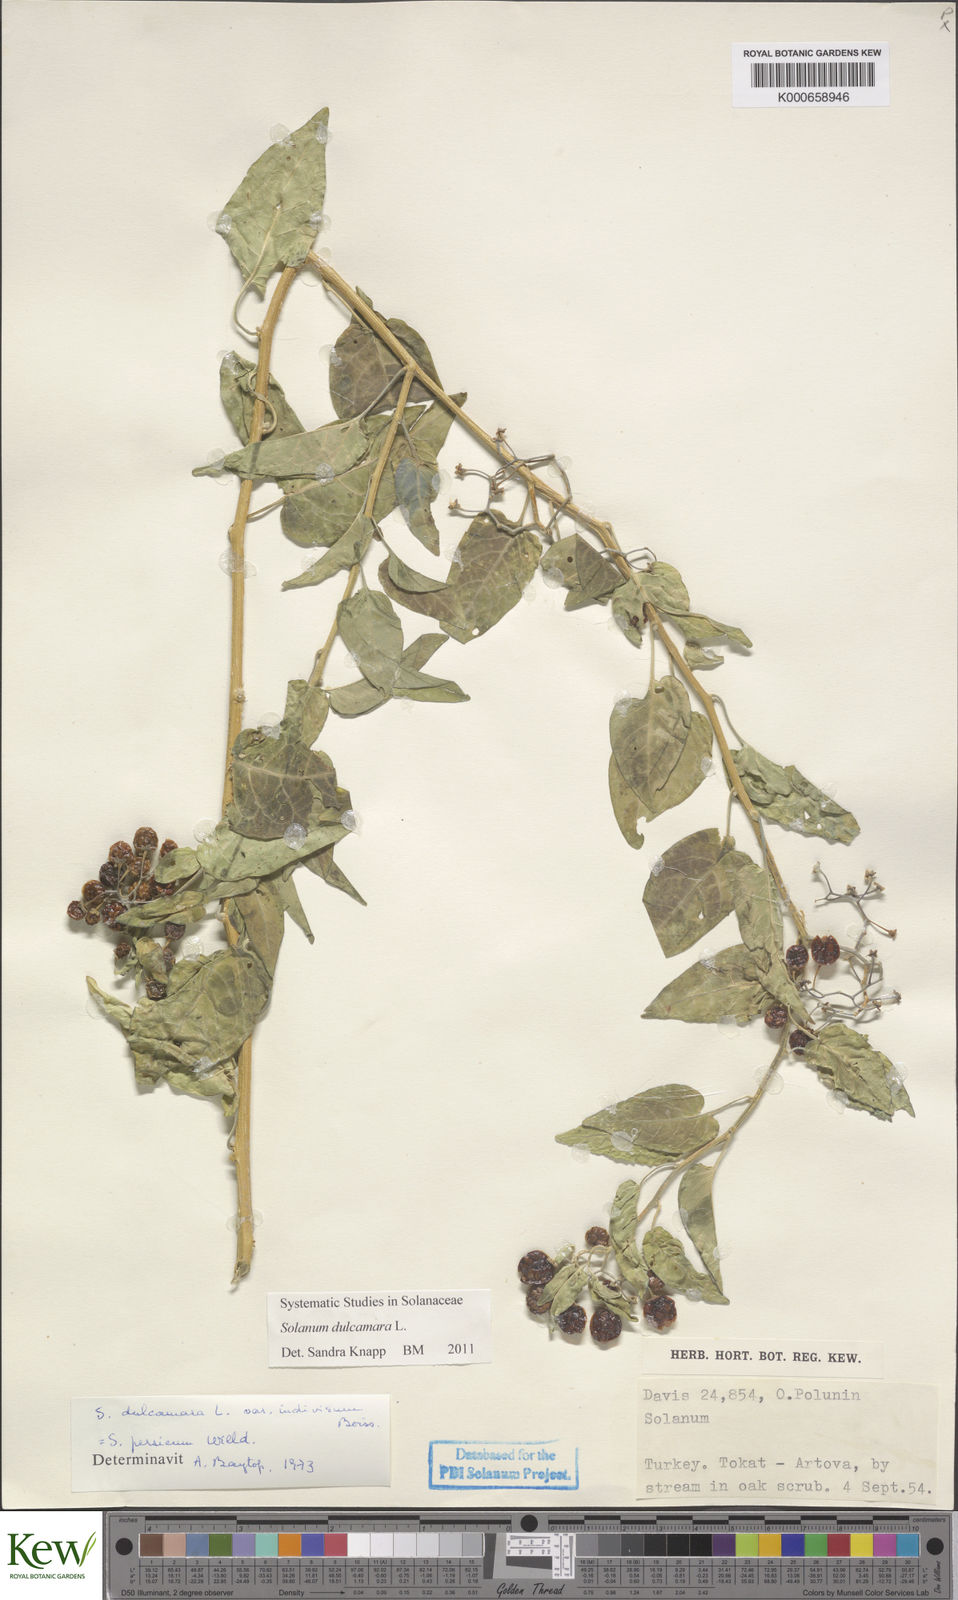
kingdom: Plantae
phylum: Tracheophyta
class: Magnoliopsida
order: Solanales
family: Solanaceae
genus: Solanum
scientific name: Solanum dulcamara
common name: Climbing nightshade
